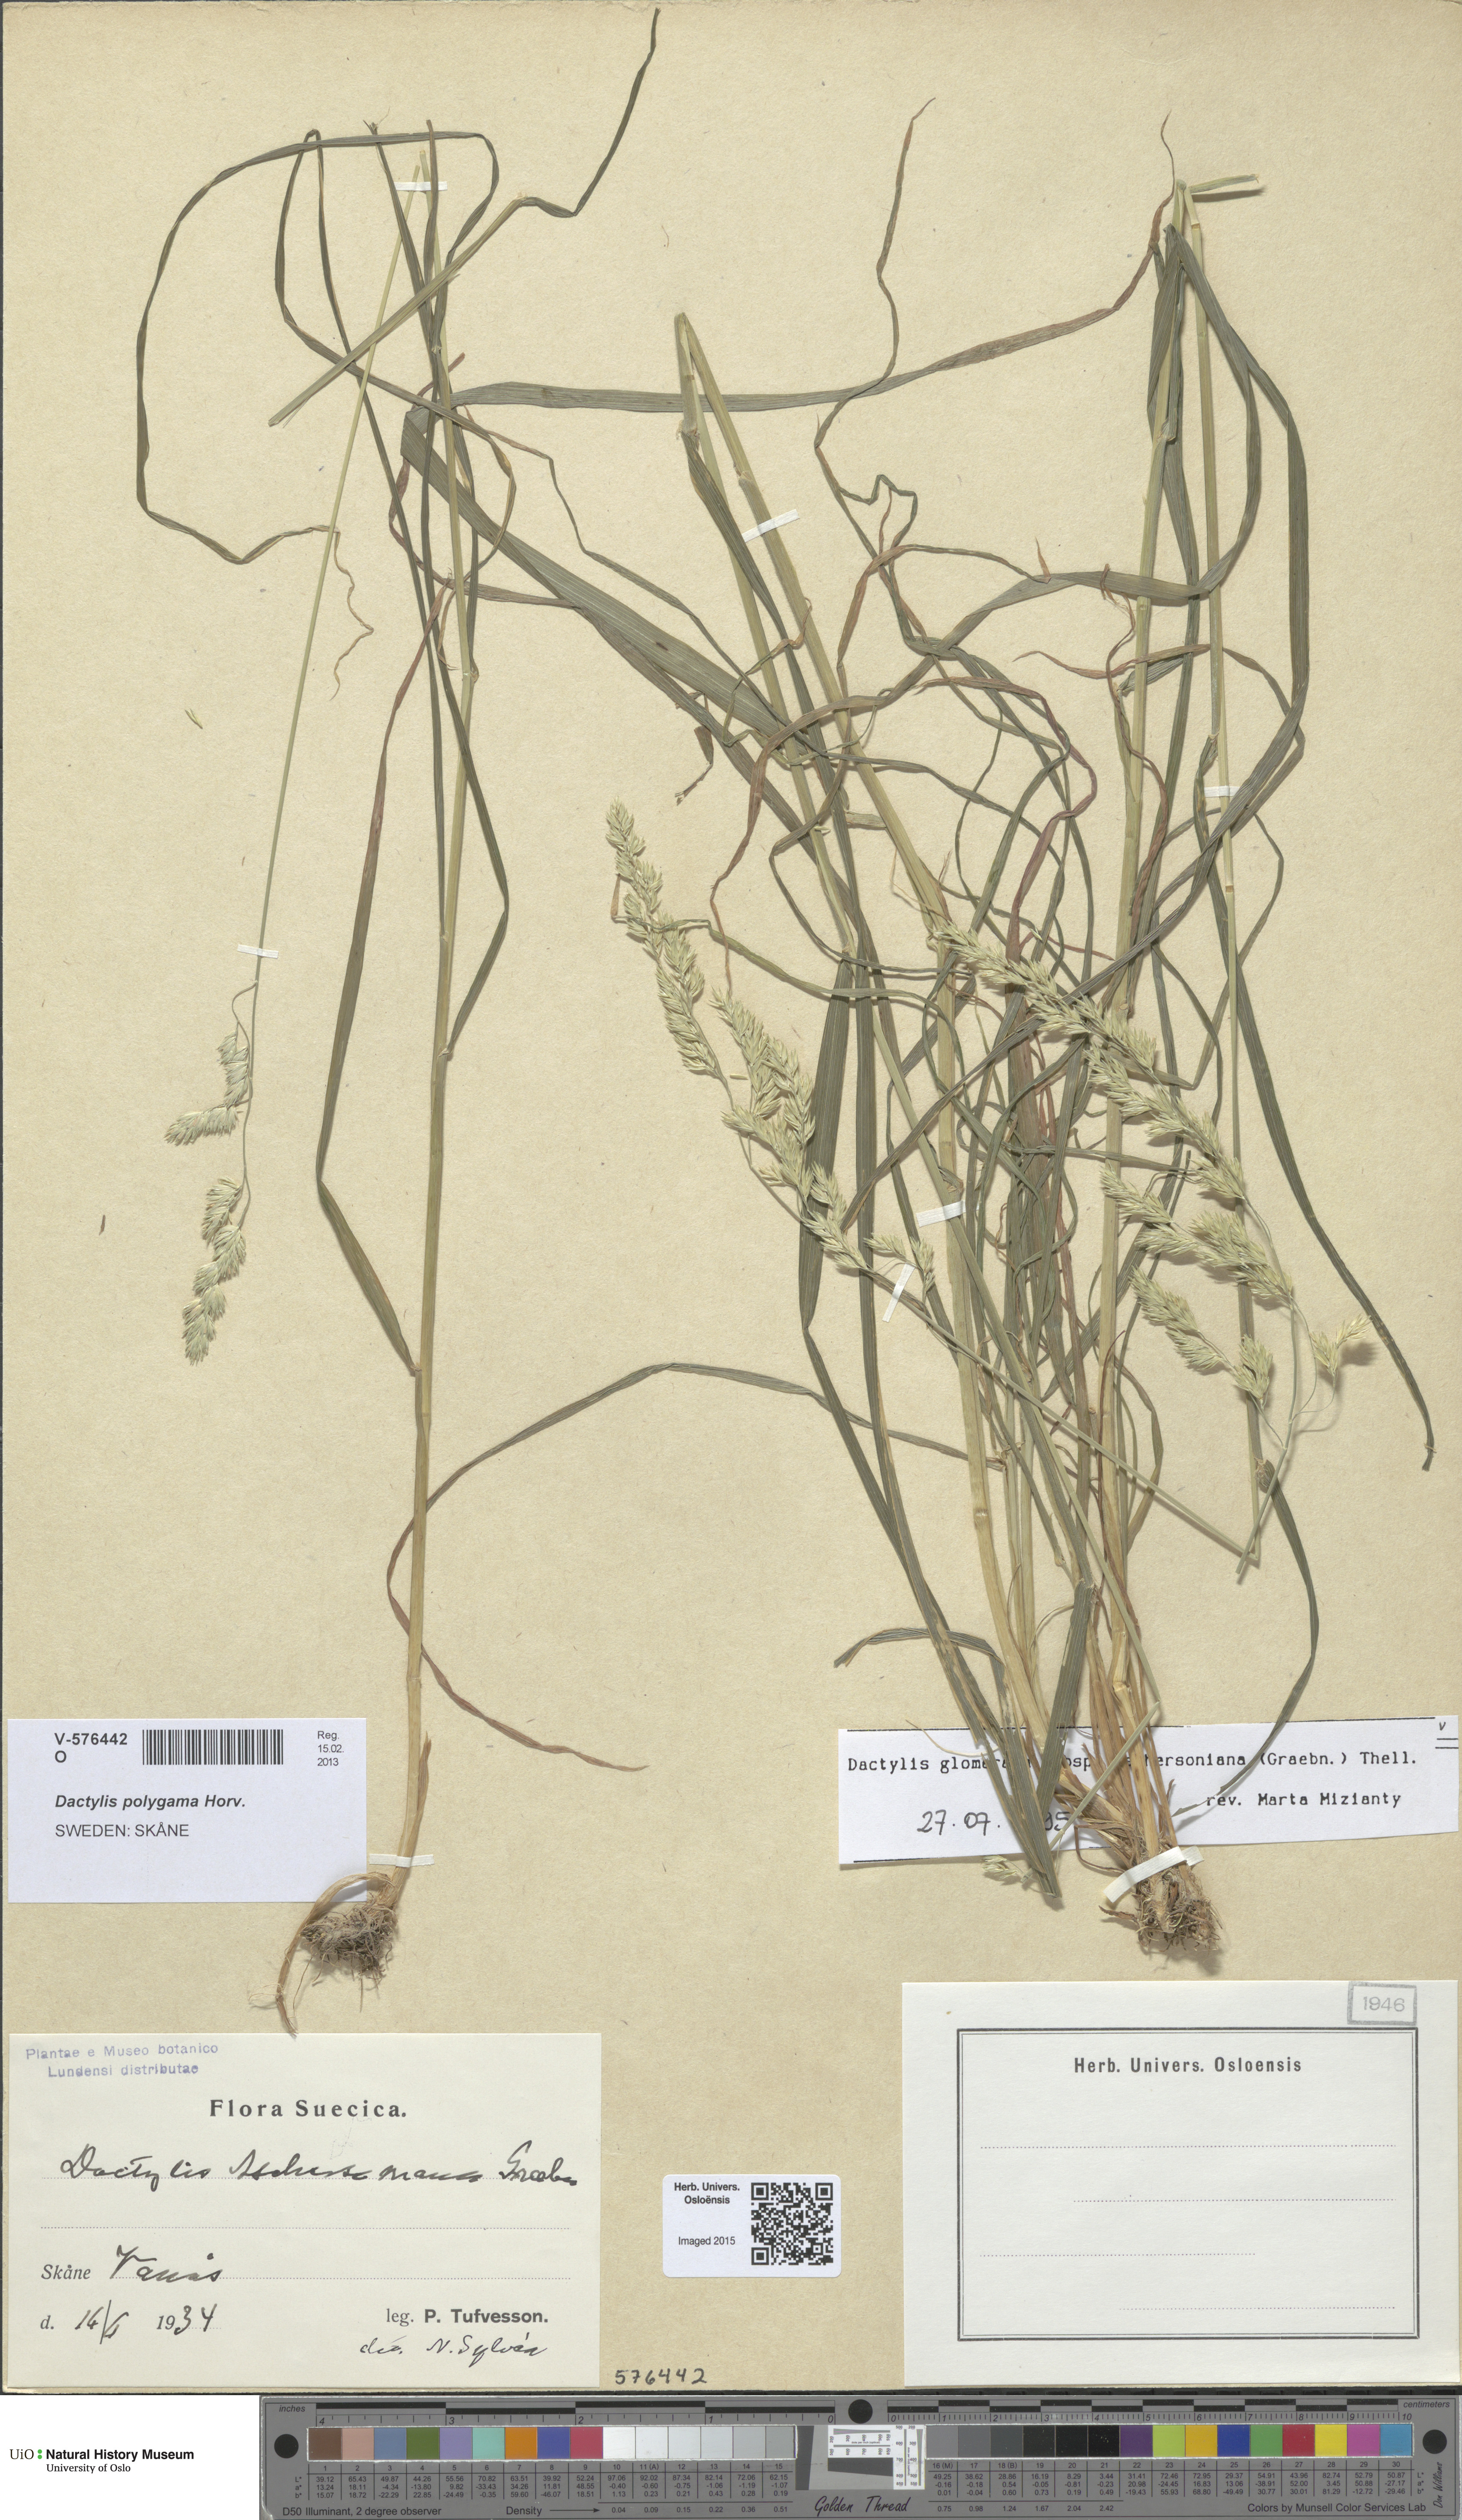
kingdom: Plantae
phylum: Tracheophyta
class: Liliopsida
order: Poales
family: Poaceae
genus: Dactylis
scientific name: Dactylis glomerata
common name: Orchardgrass
